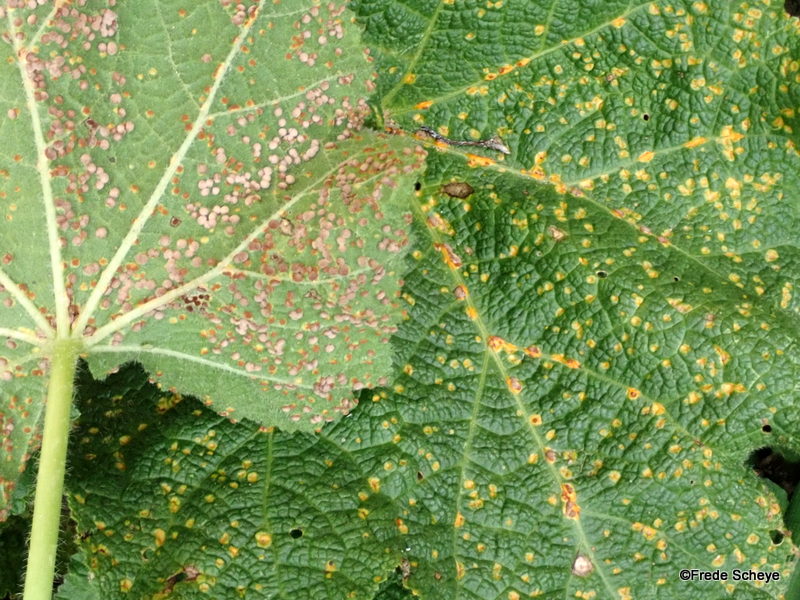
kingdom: Fungi
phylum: Basidiomycota
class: Pucciniomycetes
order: Pucciniales
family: Pucciniaceae
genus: Puccinia
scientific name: Puccinia malvacearum
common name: stokrose-tvecellerust
